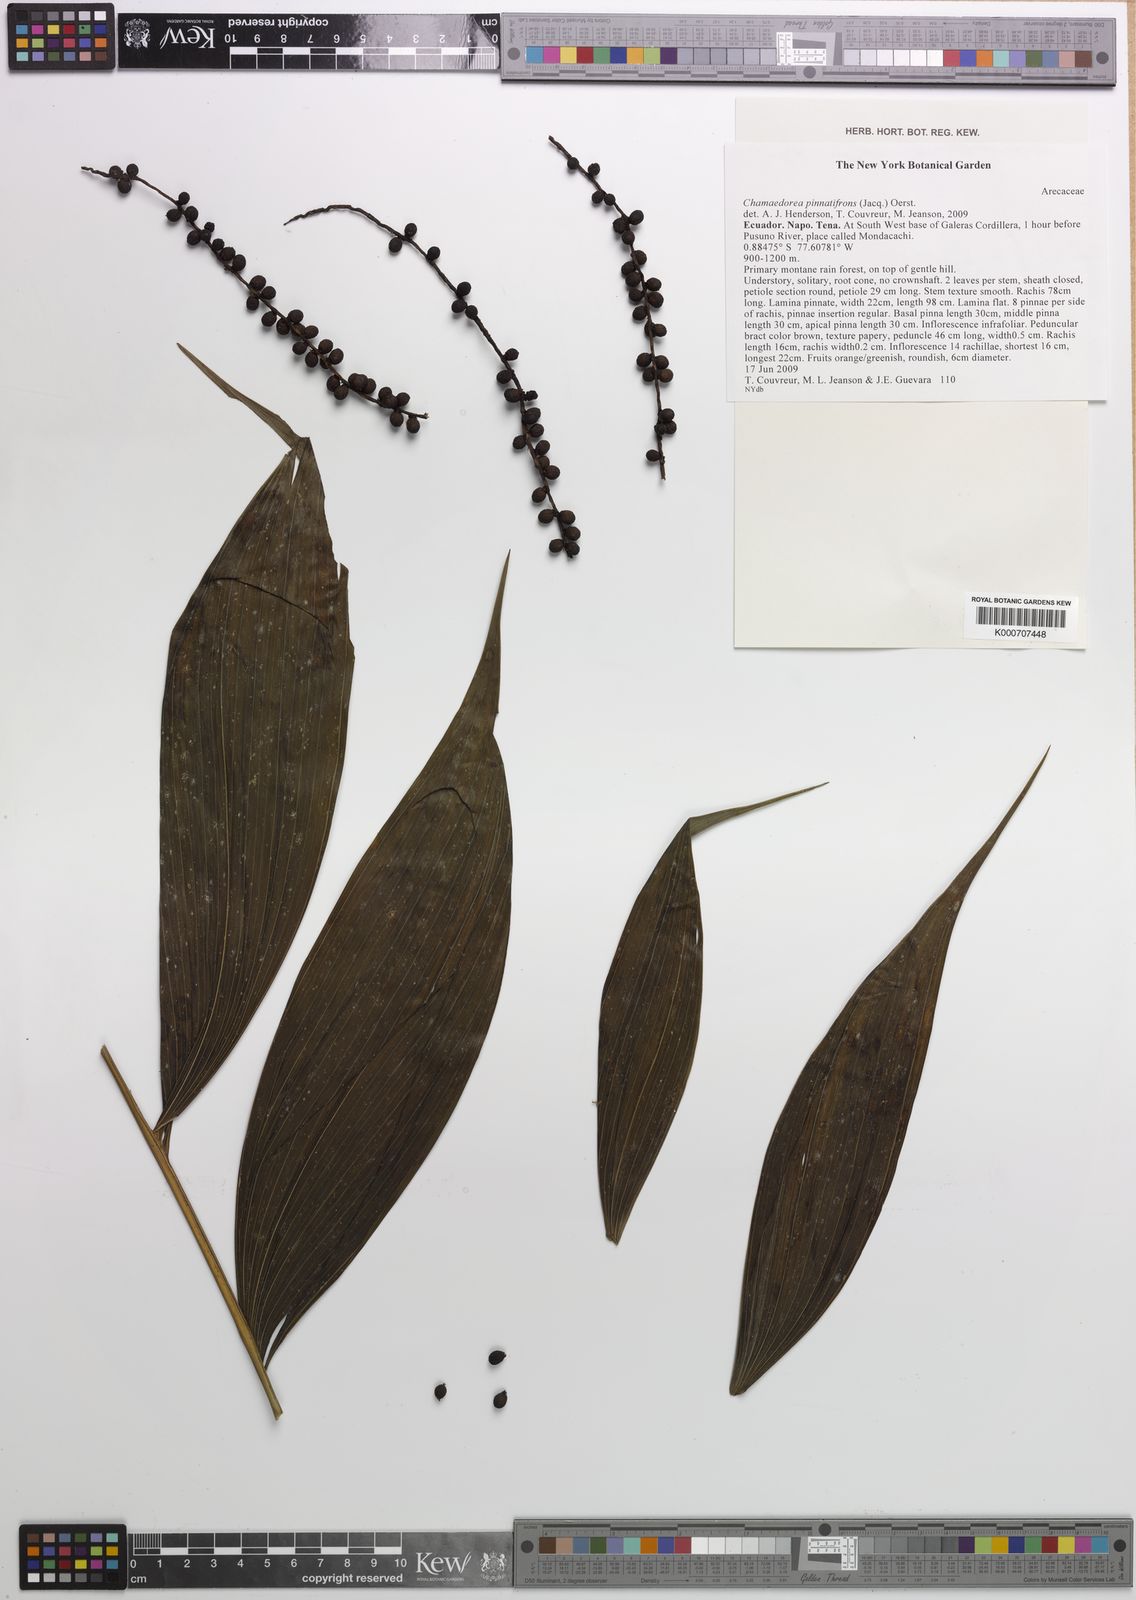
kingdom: Plantae
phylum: Tracheophyta
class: Liliopsida
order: Arecales
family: Arecaceae
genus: Chamaedorea
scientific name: Chamaedorea pinnatifrons
